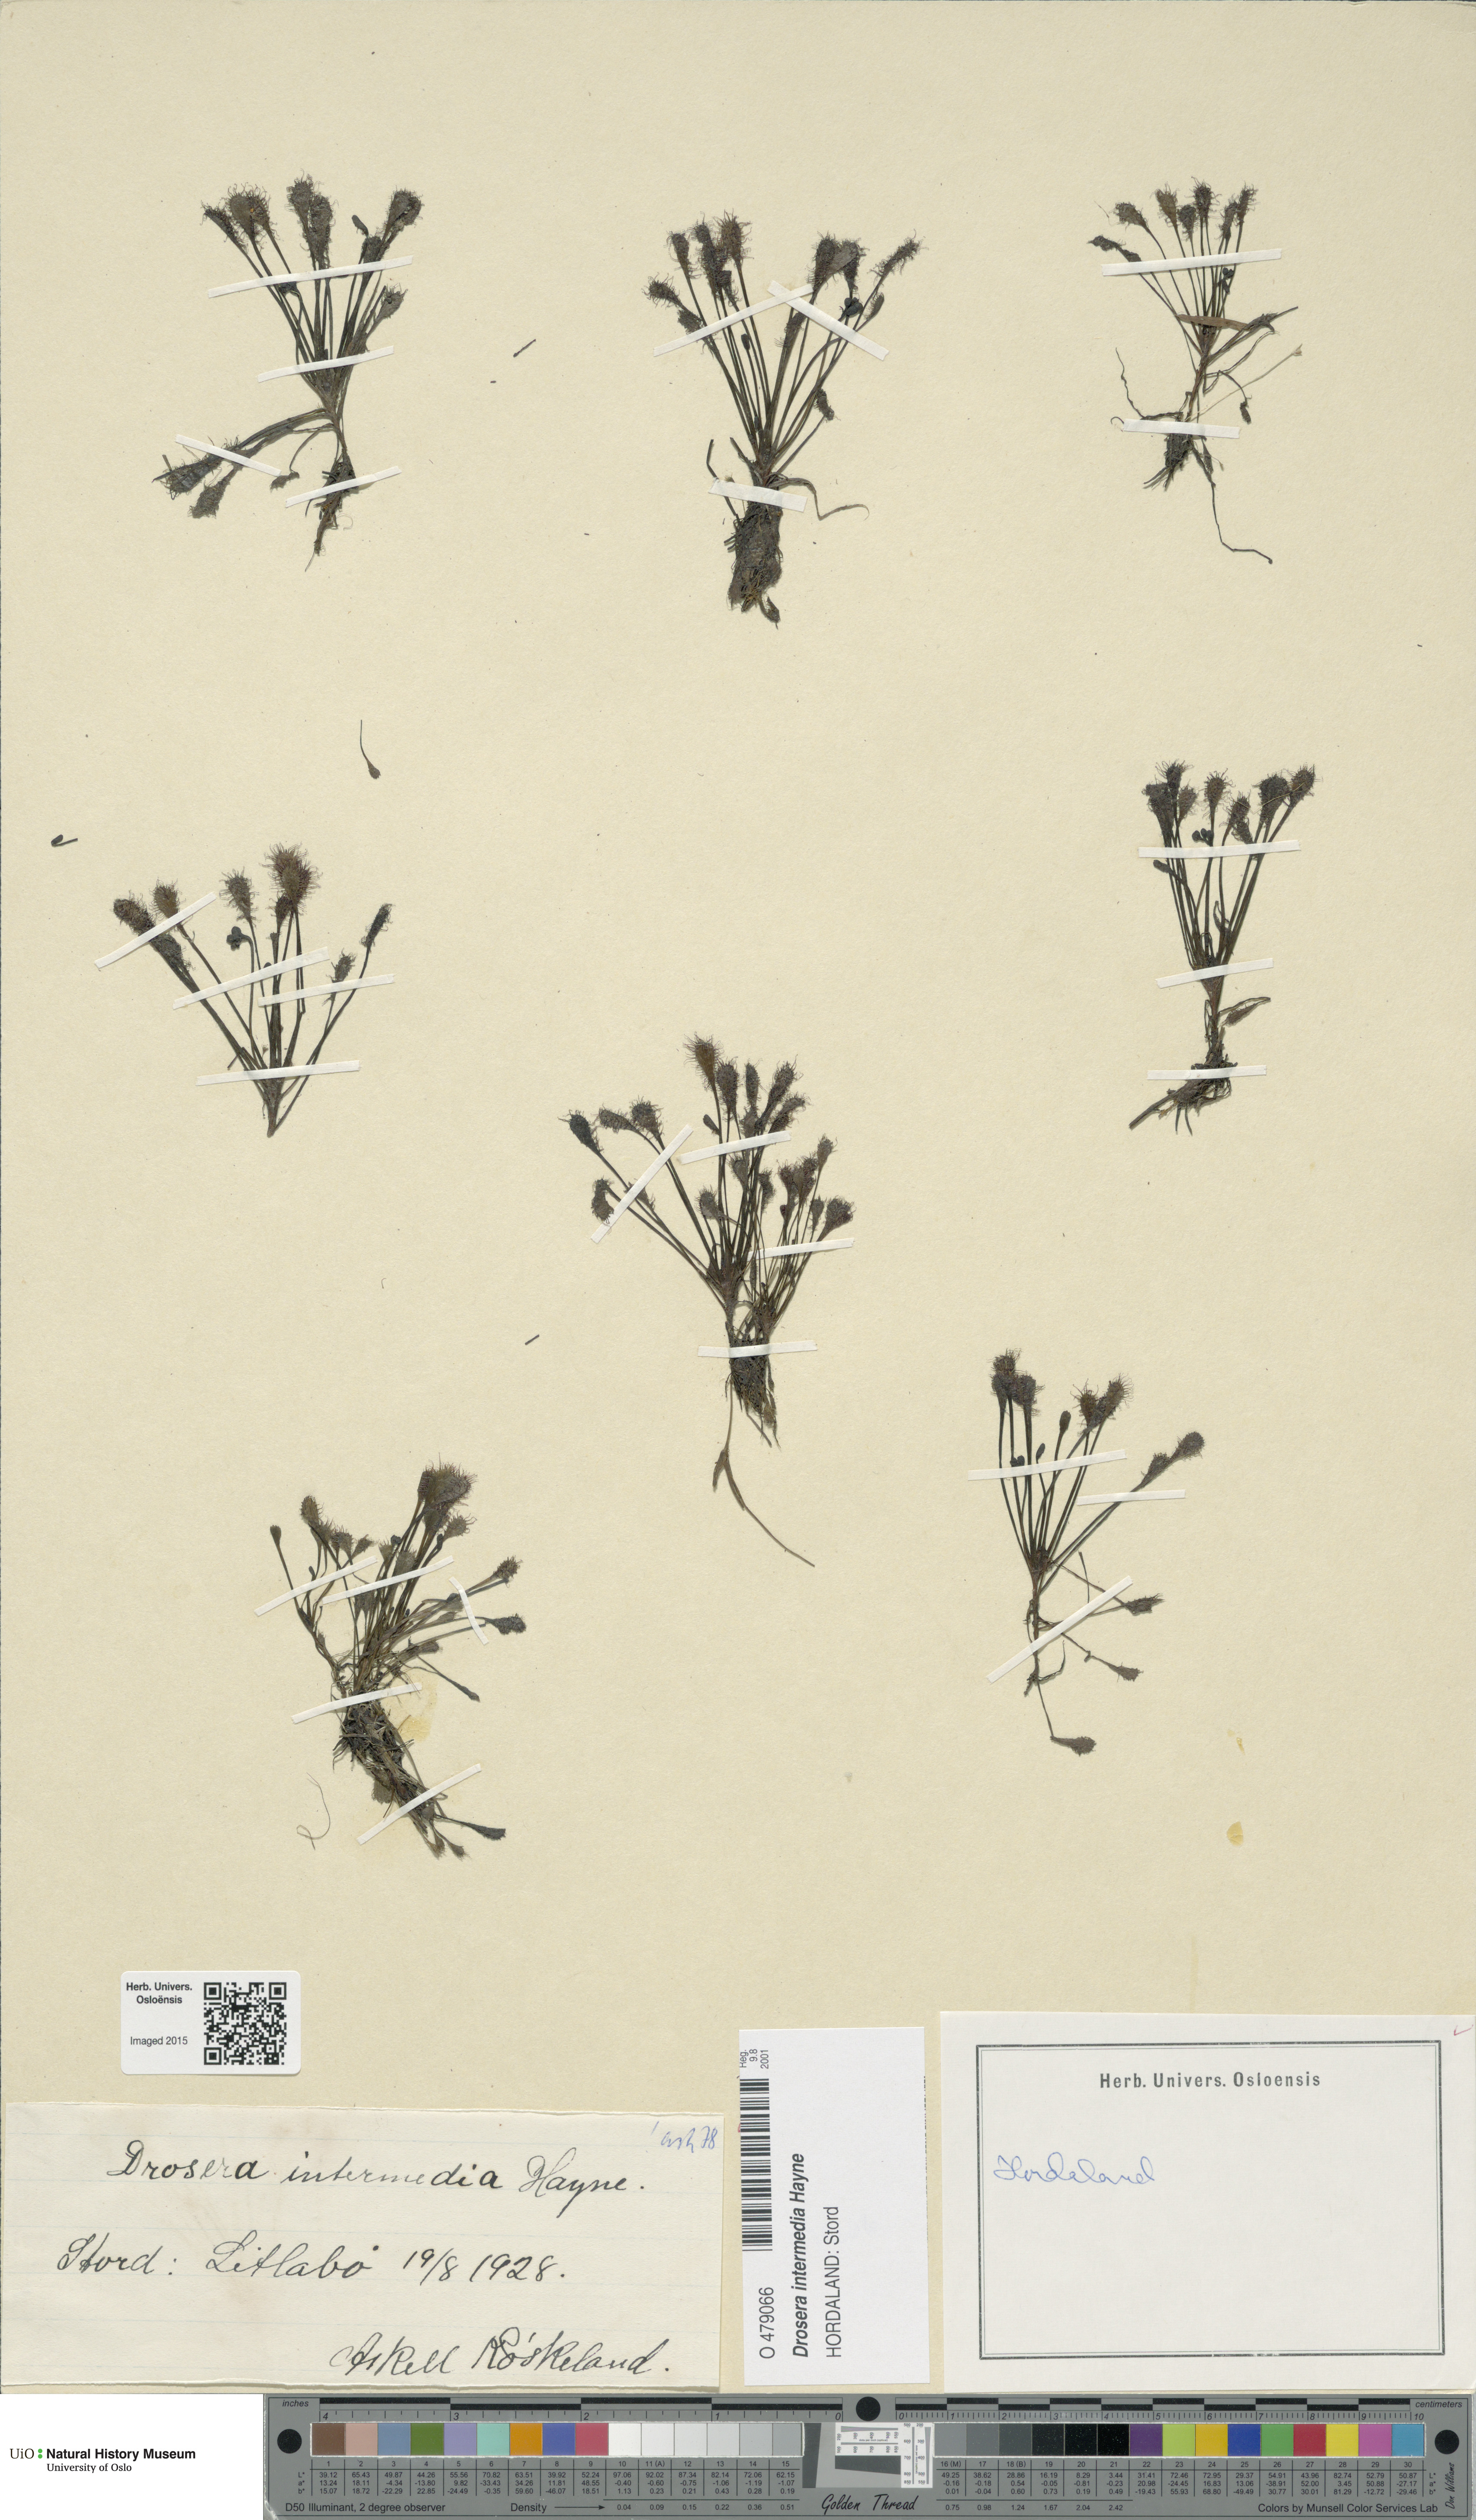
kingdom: Plantae
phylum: Tracheophyta
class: Magnoliopsida
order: Caryophyllales
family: Droseraceae
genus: Drosera
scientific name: Drosera intermedia
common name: Oblong-leaved sundew
